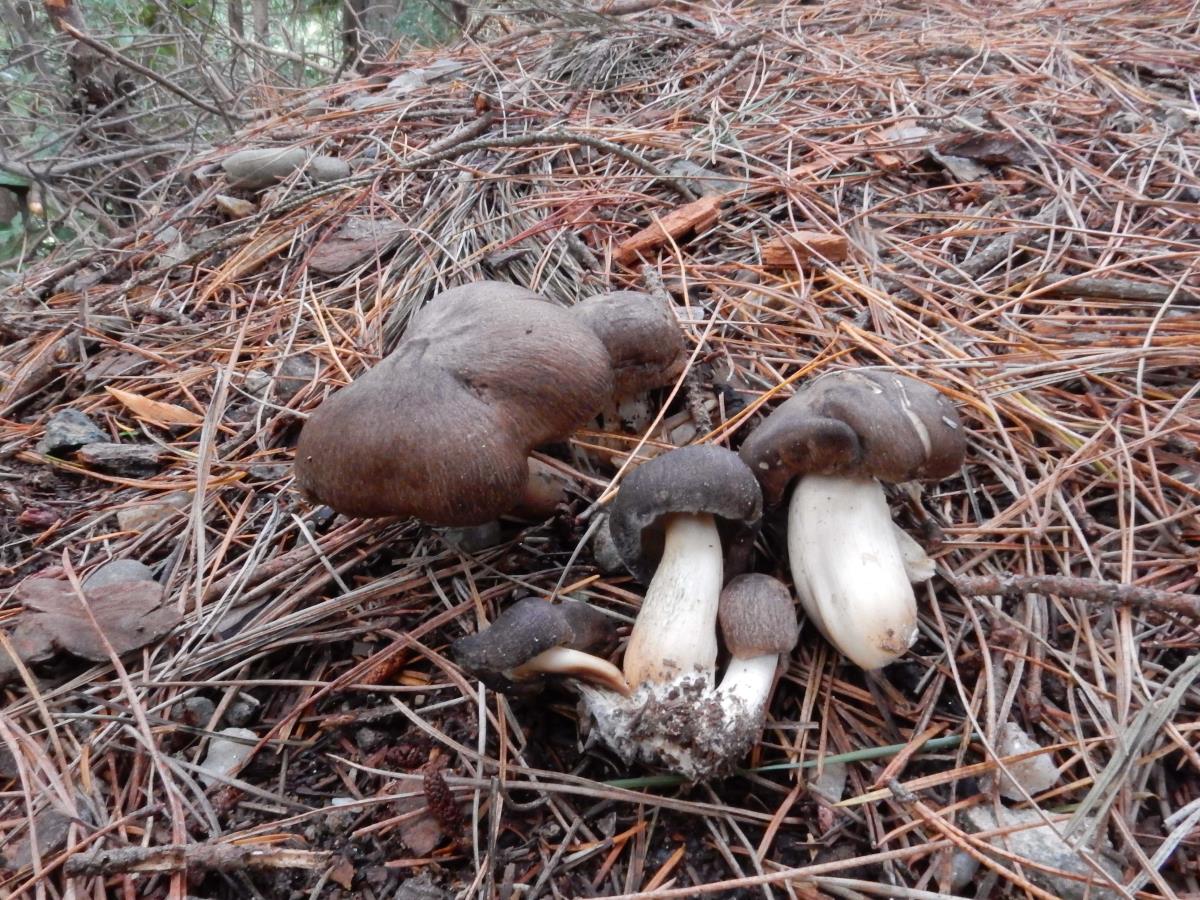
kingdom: Fungi
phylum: Basidiomycota
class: Agaricomycetes
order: Agaricales
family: Tricholomataceae
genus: Tricholoma
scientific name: Tricholoma terreum
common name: Grey knight
